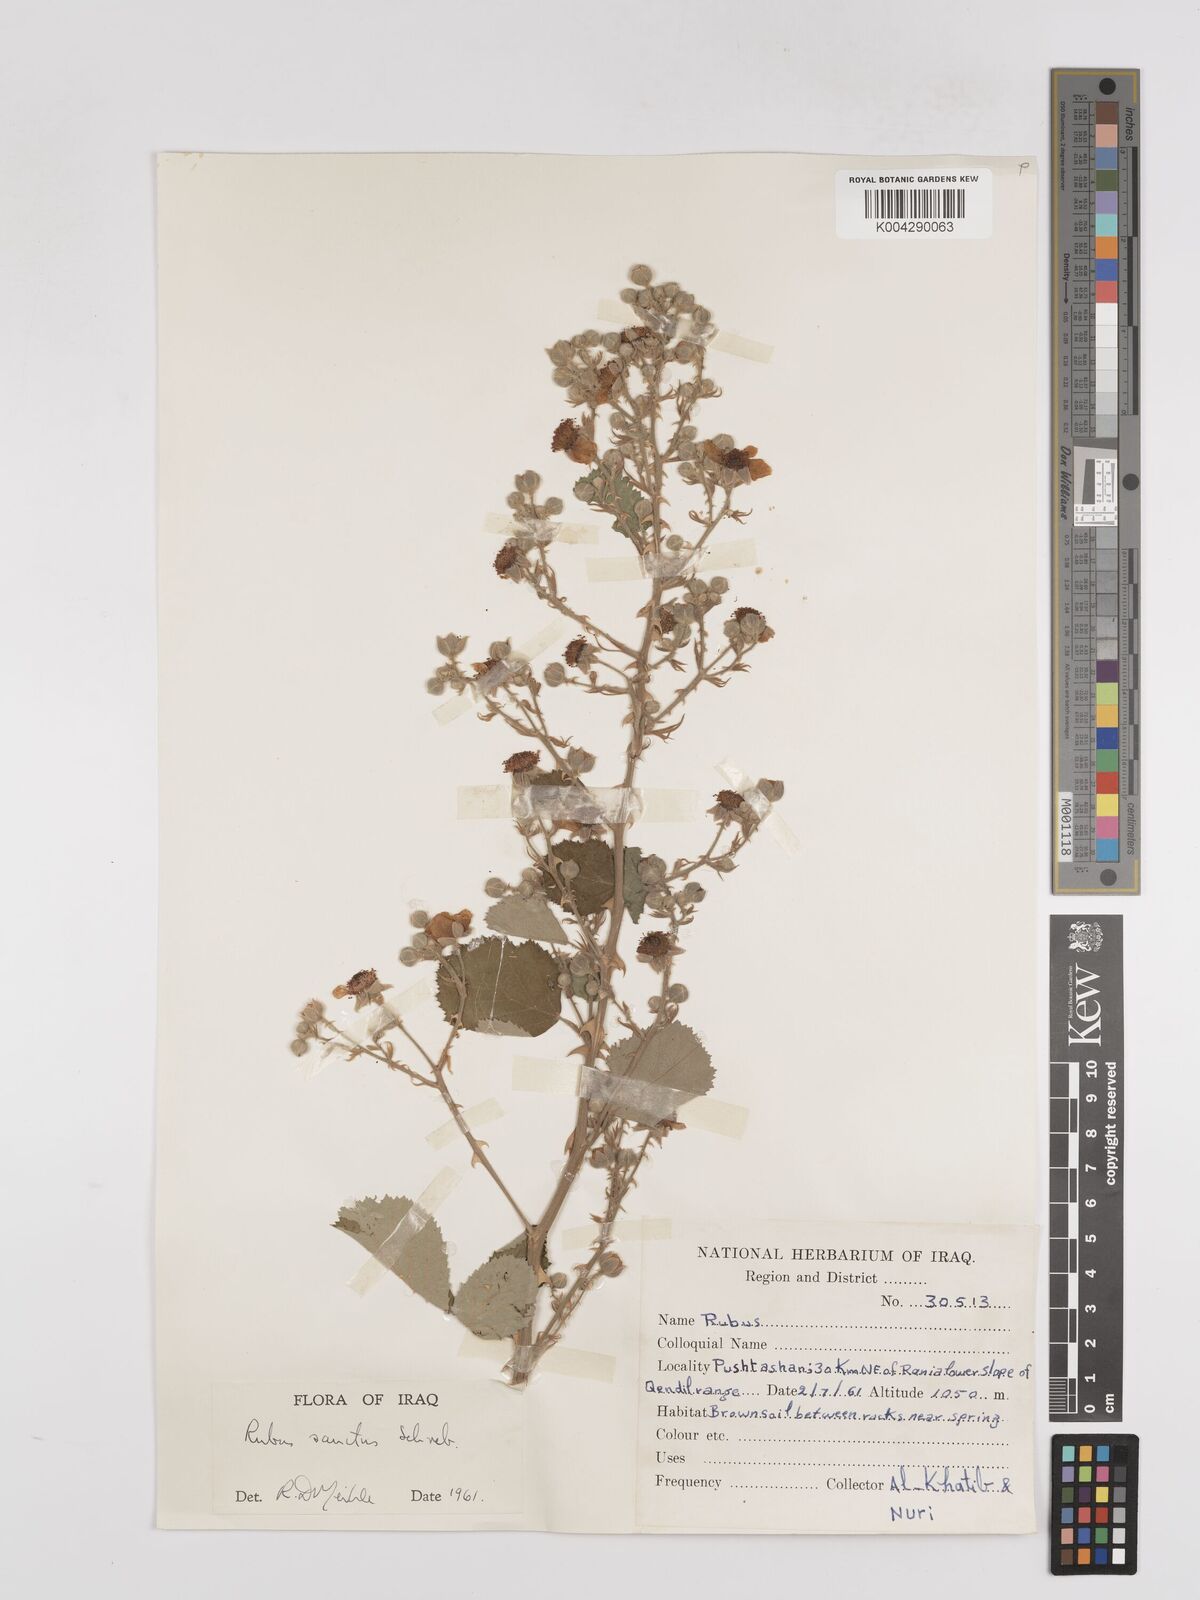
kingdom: Plantae
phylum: Tracheophyta
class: Magnoliopsida
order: Rosales
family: Rosaceae
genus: Rubus
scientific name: Rubus sanctus
